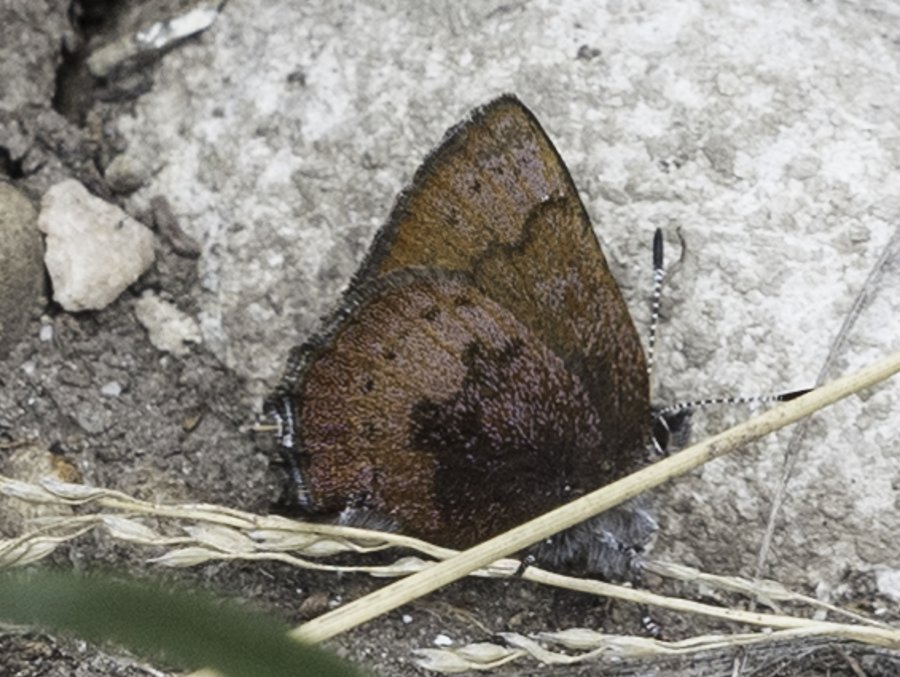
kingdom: Animalia
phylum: Arthropoda
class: Insecta
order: Lepidoptera
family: Lycaenidae
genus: Incisalia
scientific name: Incisalia irioides
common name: Brown Elfin
